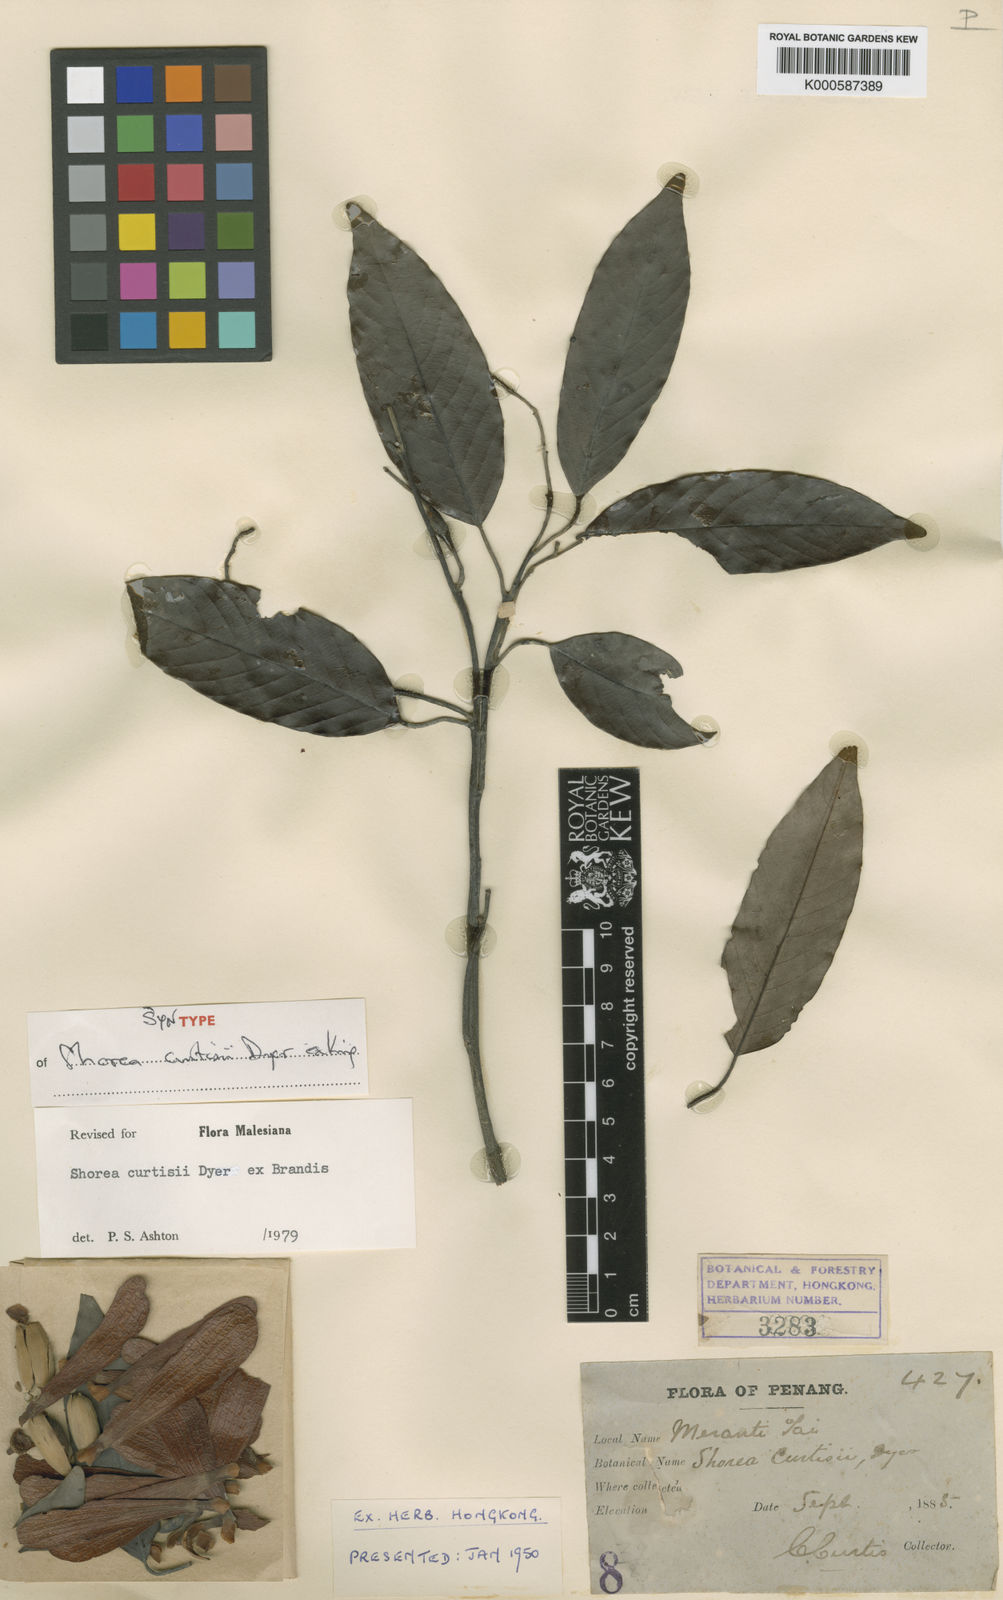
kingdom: Plantae
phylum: Tracheophyta
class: Magnoliopsida
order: Malvales
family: Dipterocarpaceae
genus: Shorea
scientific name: Shorea curtisii
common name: Dark red meranti
